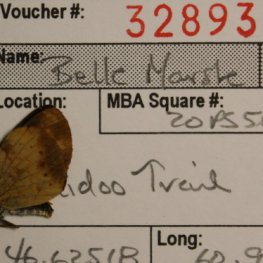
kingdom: Animalia
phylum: Arthropoda
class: Insecta
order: Lepidoptera
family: Nymphalidae
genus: Phyciodes
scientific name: Phyciodes tharos
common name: Northern Crescent
